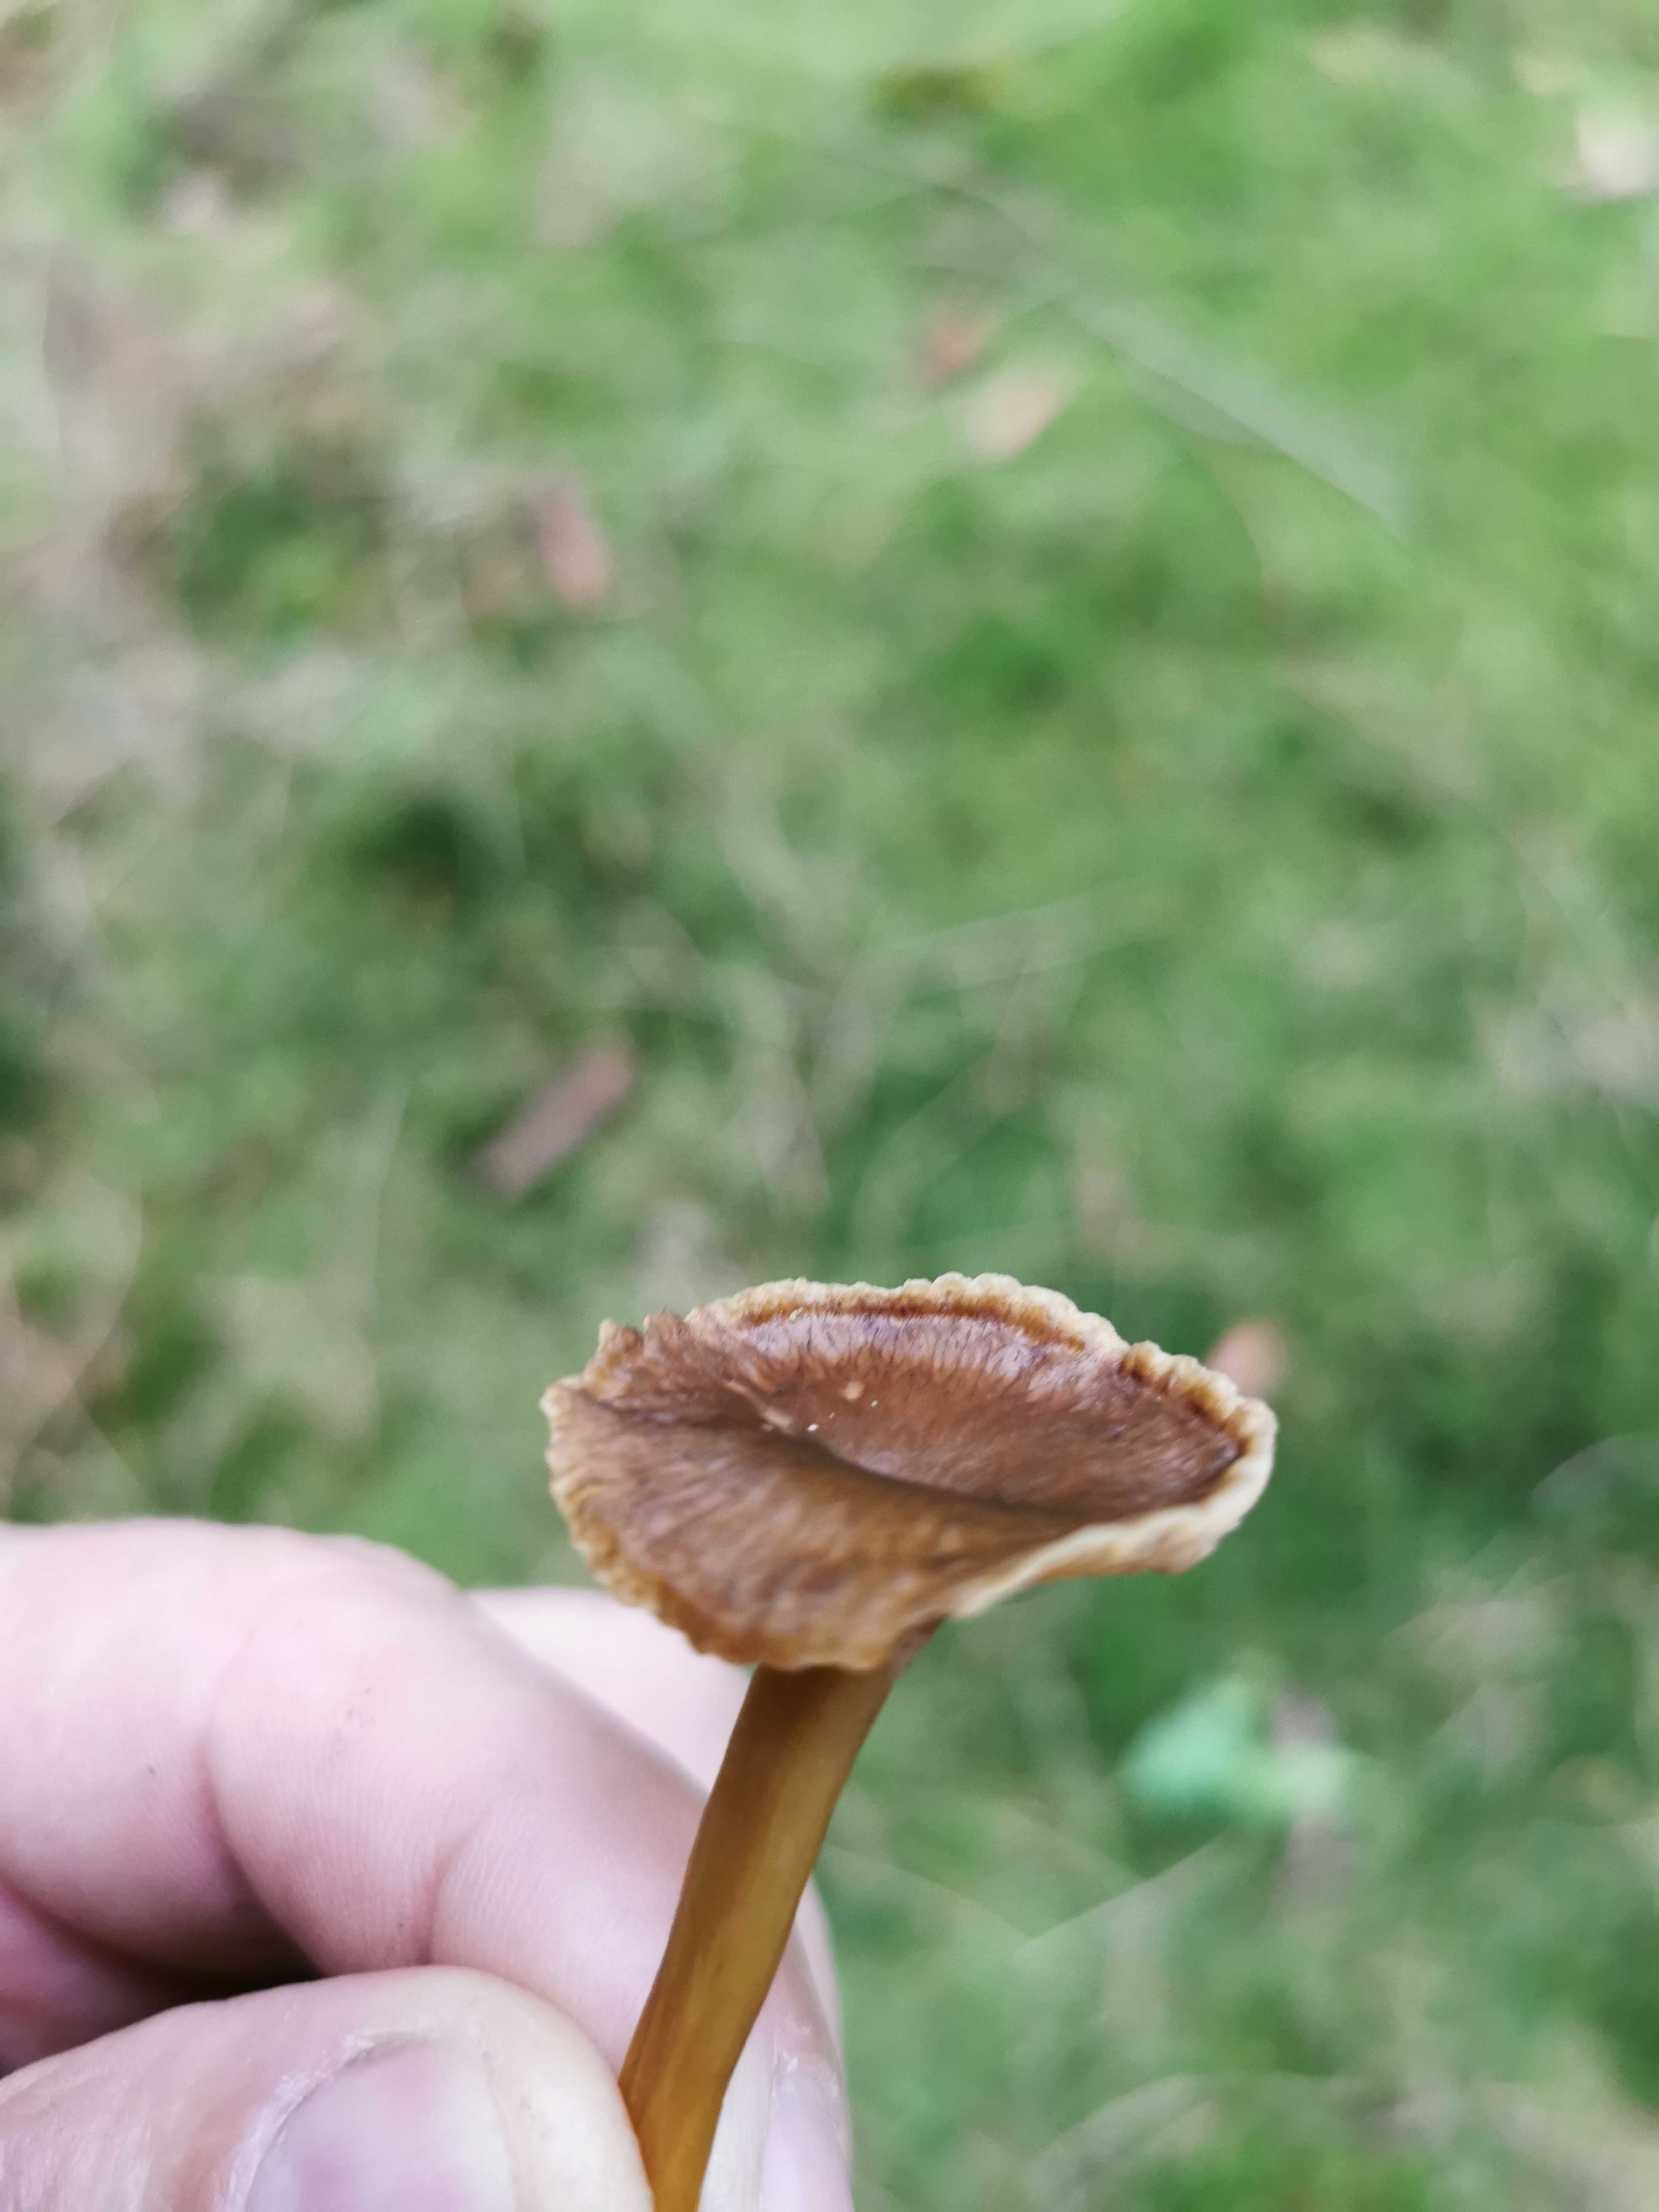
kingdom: Fungi
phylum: Basidiomycota
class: Agaricomycetes
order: Cantharellales
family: Hydnaceae
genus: Craterellus
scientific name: Craterellus tubaeformis
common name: tragt-kantarel
